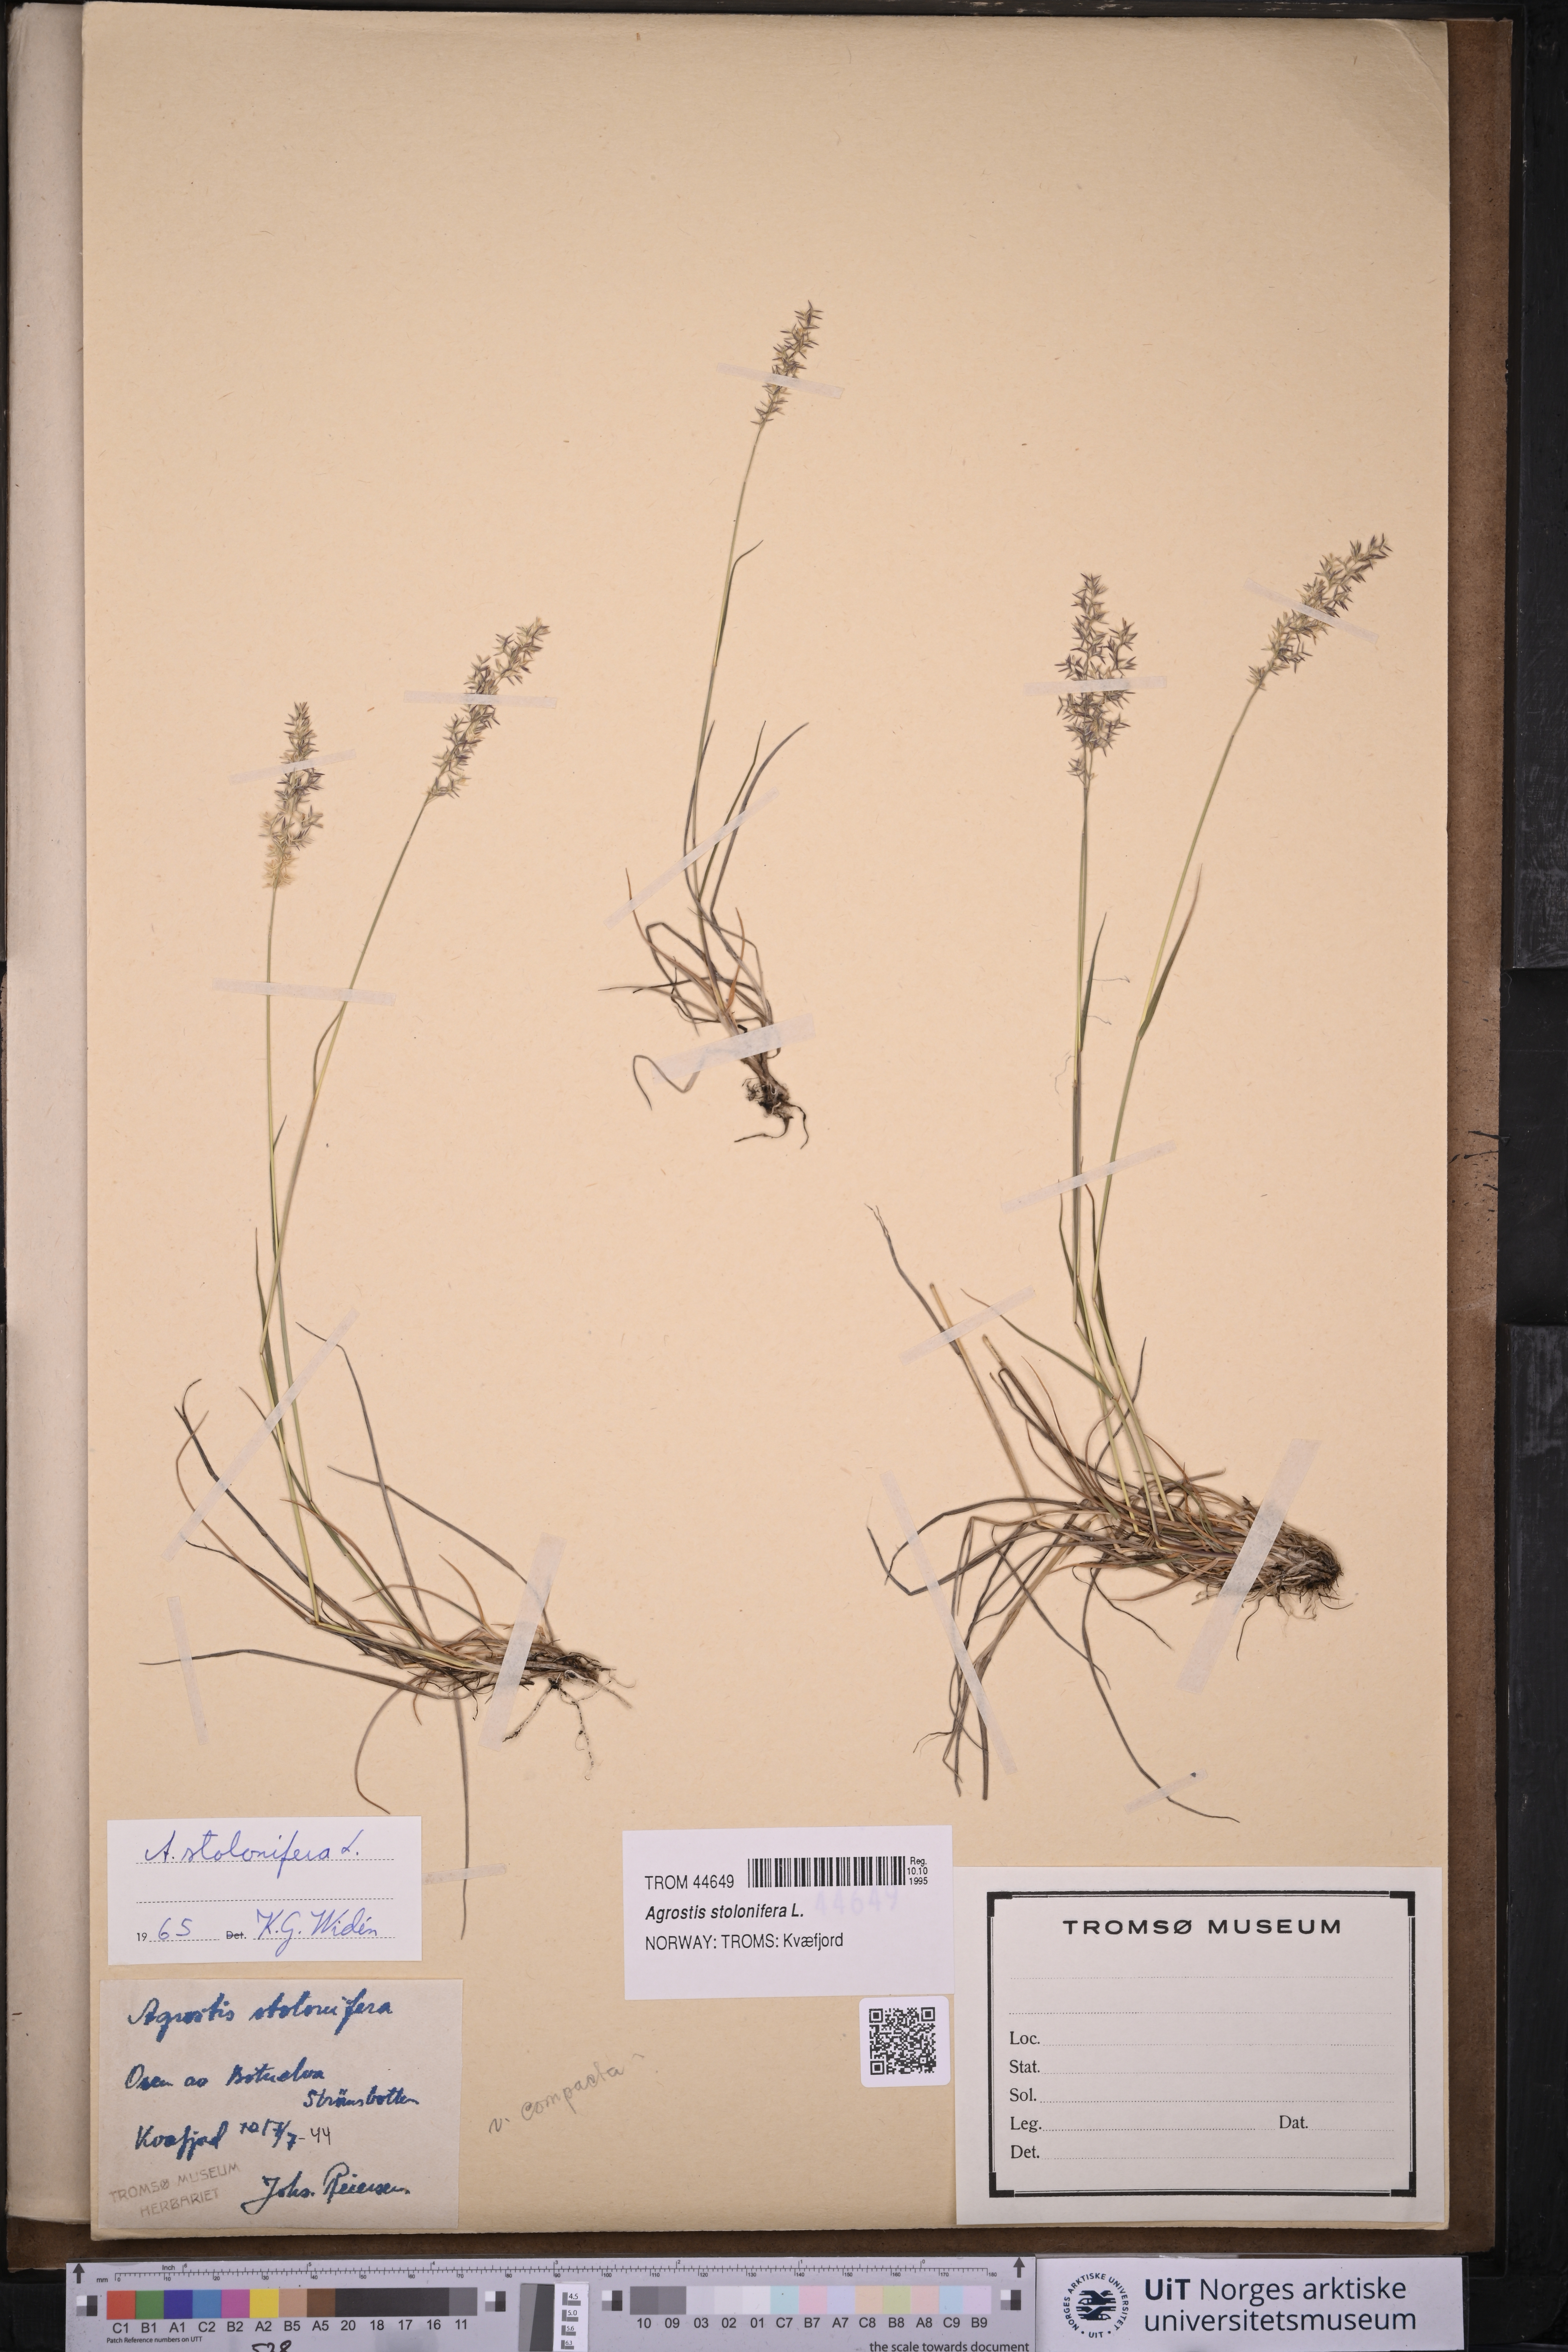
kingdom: Plantae
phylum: Tracheophyta
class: Liliopsida
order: Poales
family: Poaceae
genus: Agrostis
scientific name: Agrostis stolonifera
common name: Creeping bentgrass
